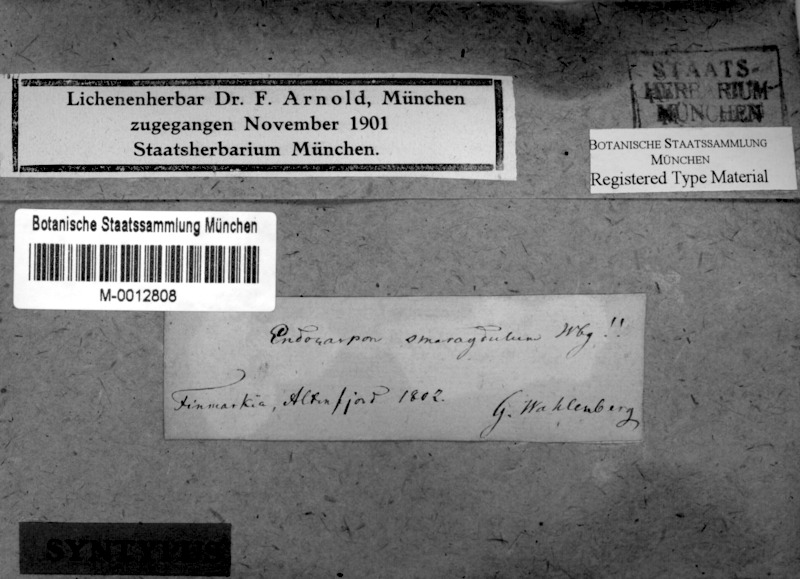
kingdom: Fungi
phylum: Ascomycota
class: Lecanoromycetes
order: Acarosporales
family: Acarosporaceae
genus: Myriospora
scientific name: Myriospora smaragdula
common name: Little emerald lichen
